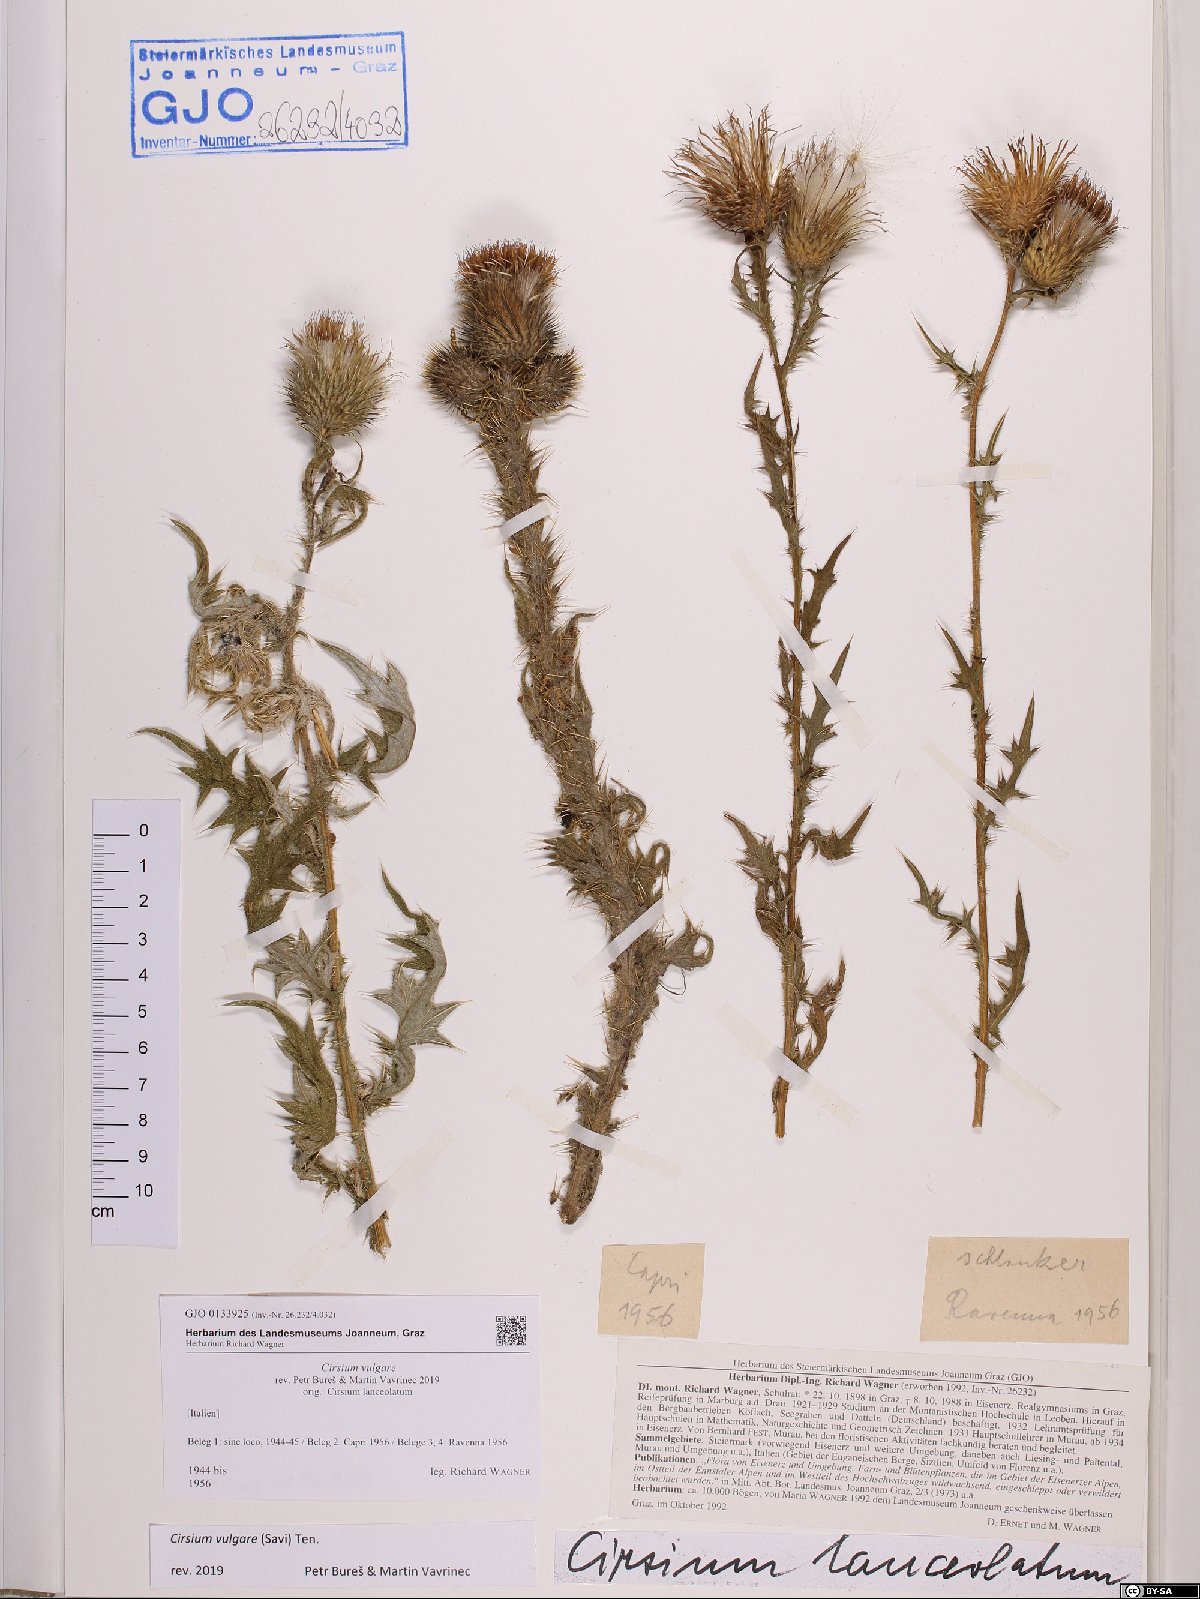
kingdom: Plantae
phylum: Tracheophyta
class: Magnoliopsida
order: Asterales
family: Asteraceae
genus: Cirsium
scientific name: Cirsium vulgare
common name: Bull thistle
